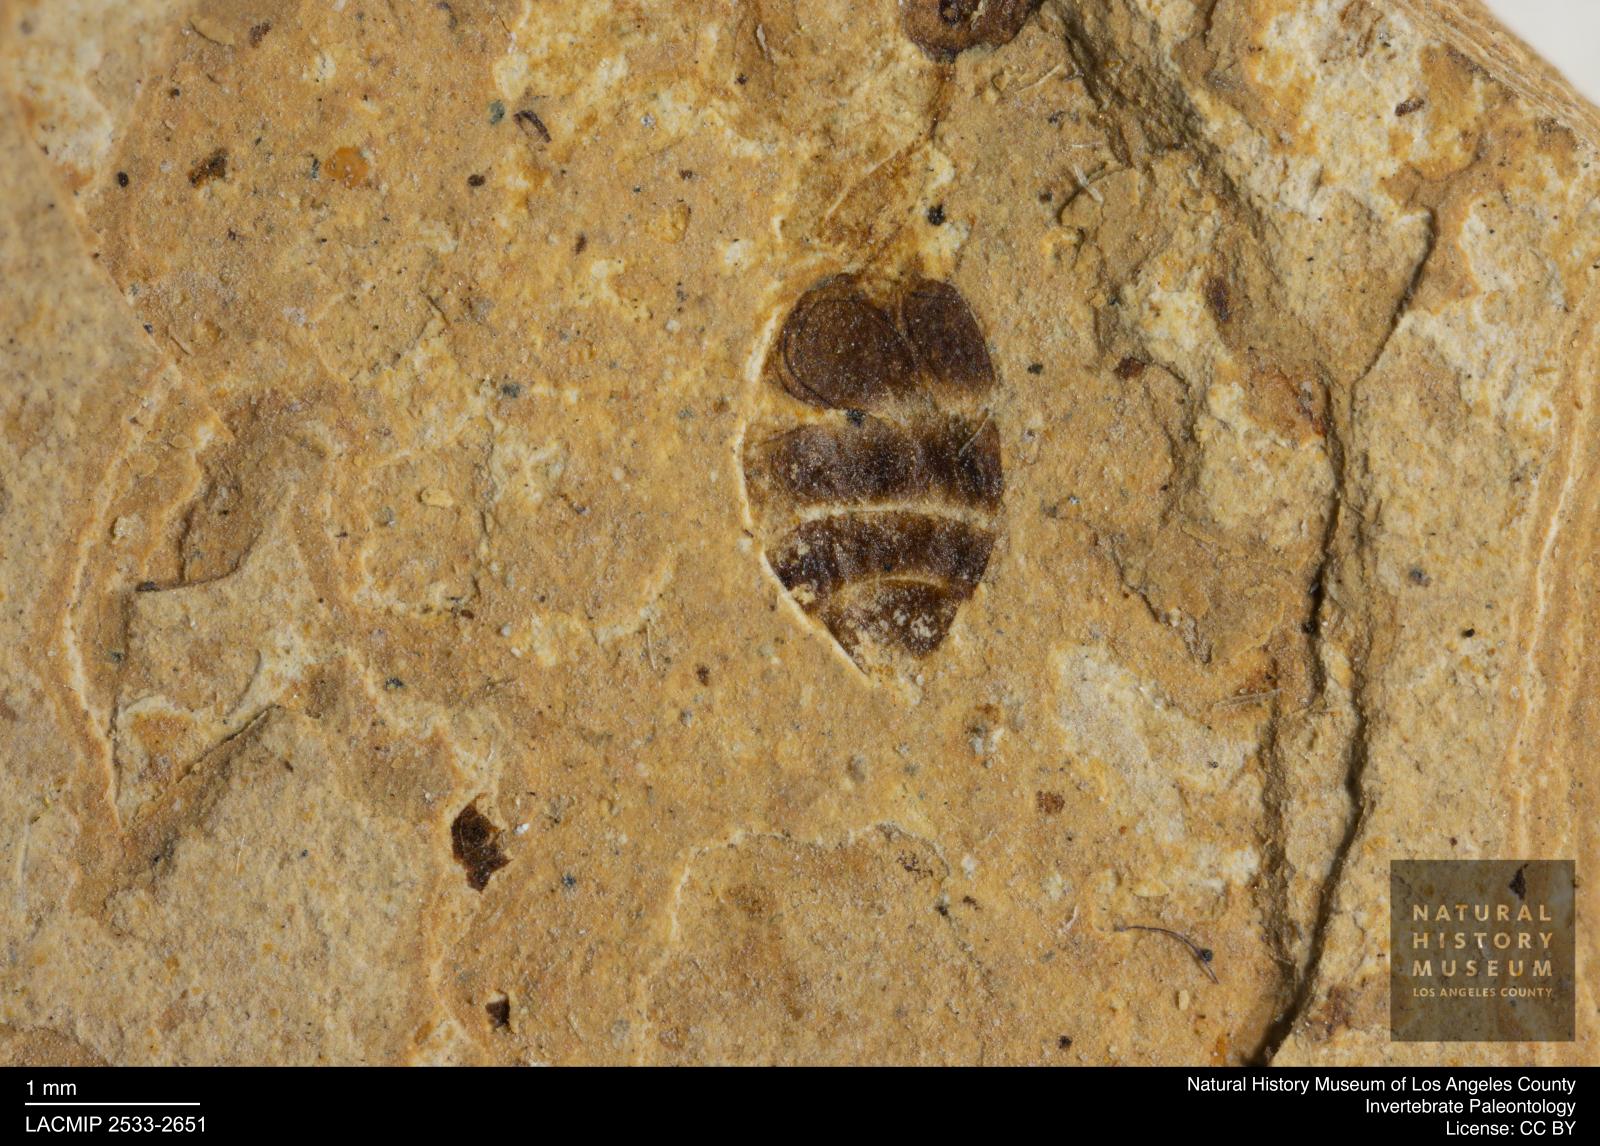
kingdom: Animalia
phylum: Arthropoda
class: Insecta
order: Hymenoptera
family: Formicidae
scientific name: Formicidae
